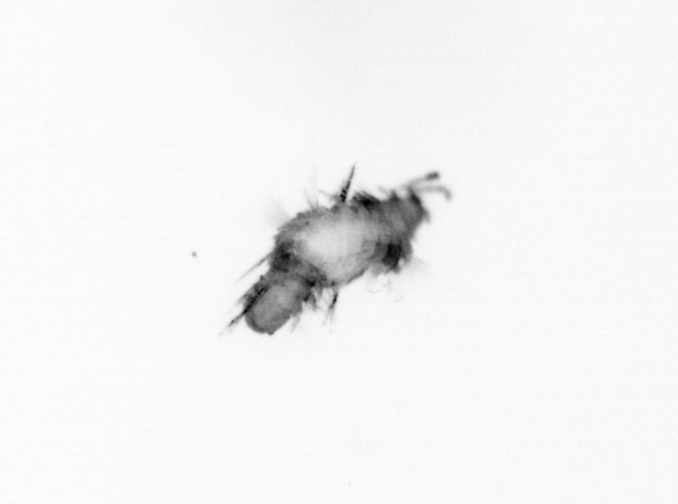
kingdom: Animalia
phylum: Annelida
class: Polychaeta
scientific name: Polychaeta
